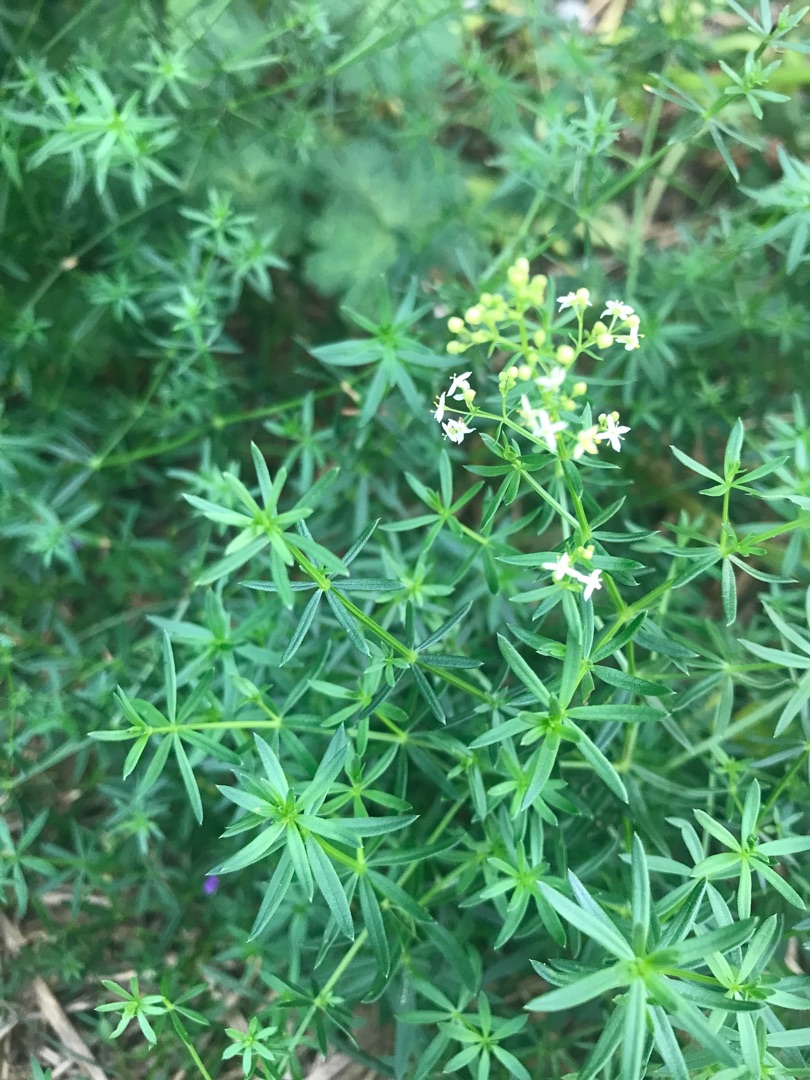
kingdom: Plantae
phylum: Tracheophyta
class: Magnoliopsida
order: Gentianales
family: Rubiaceae
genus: Galium
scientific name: Galium mollugo
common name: Hvid snerre
